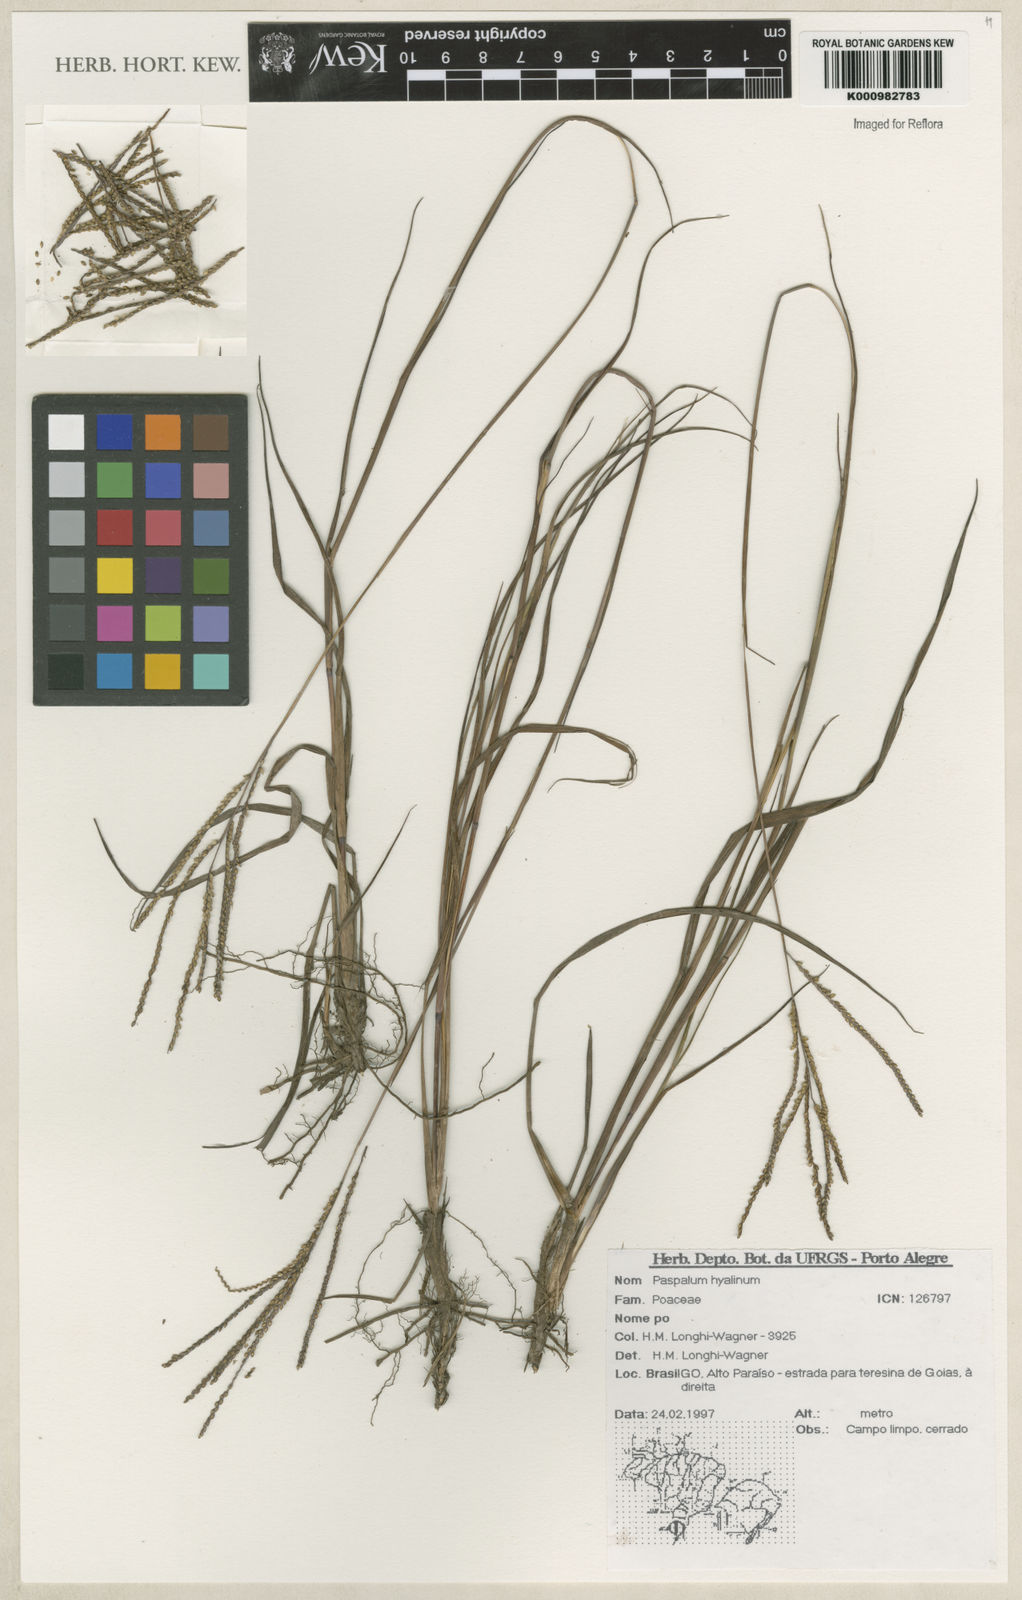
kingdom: Plantae
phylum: Tracheophyta
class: Liliopsida
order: Poales
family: Poaceae
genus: Paspalum
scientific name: Paspalum hyalinum
